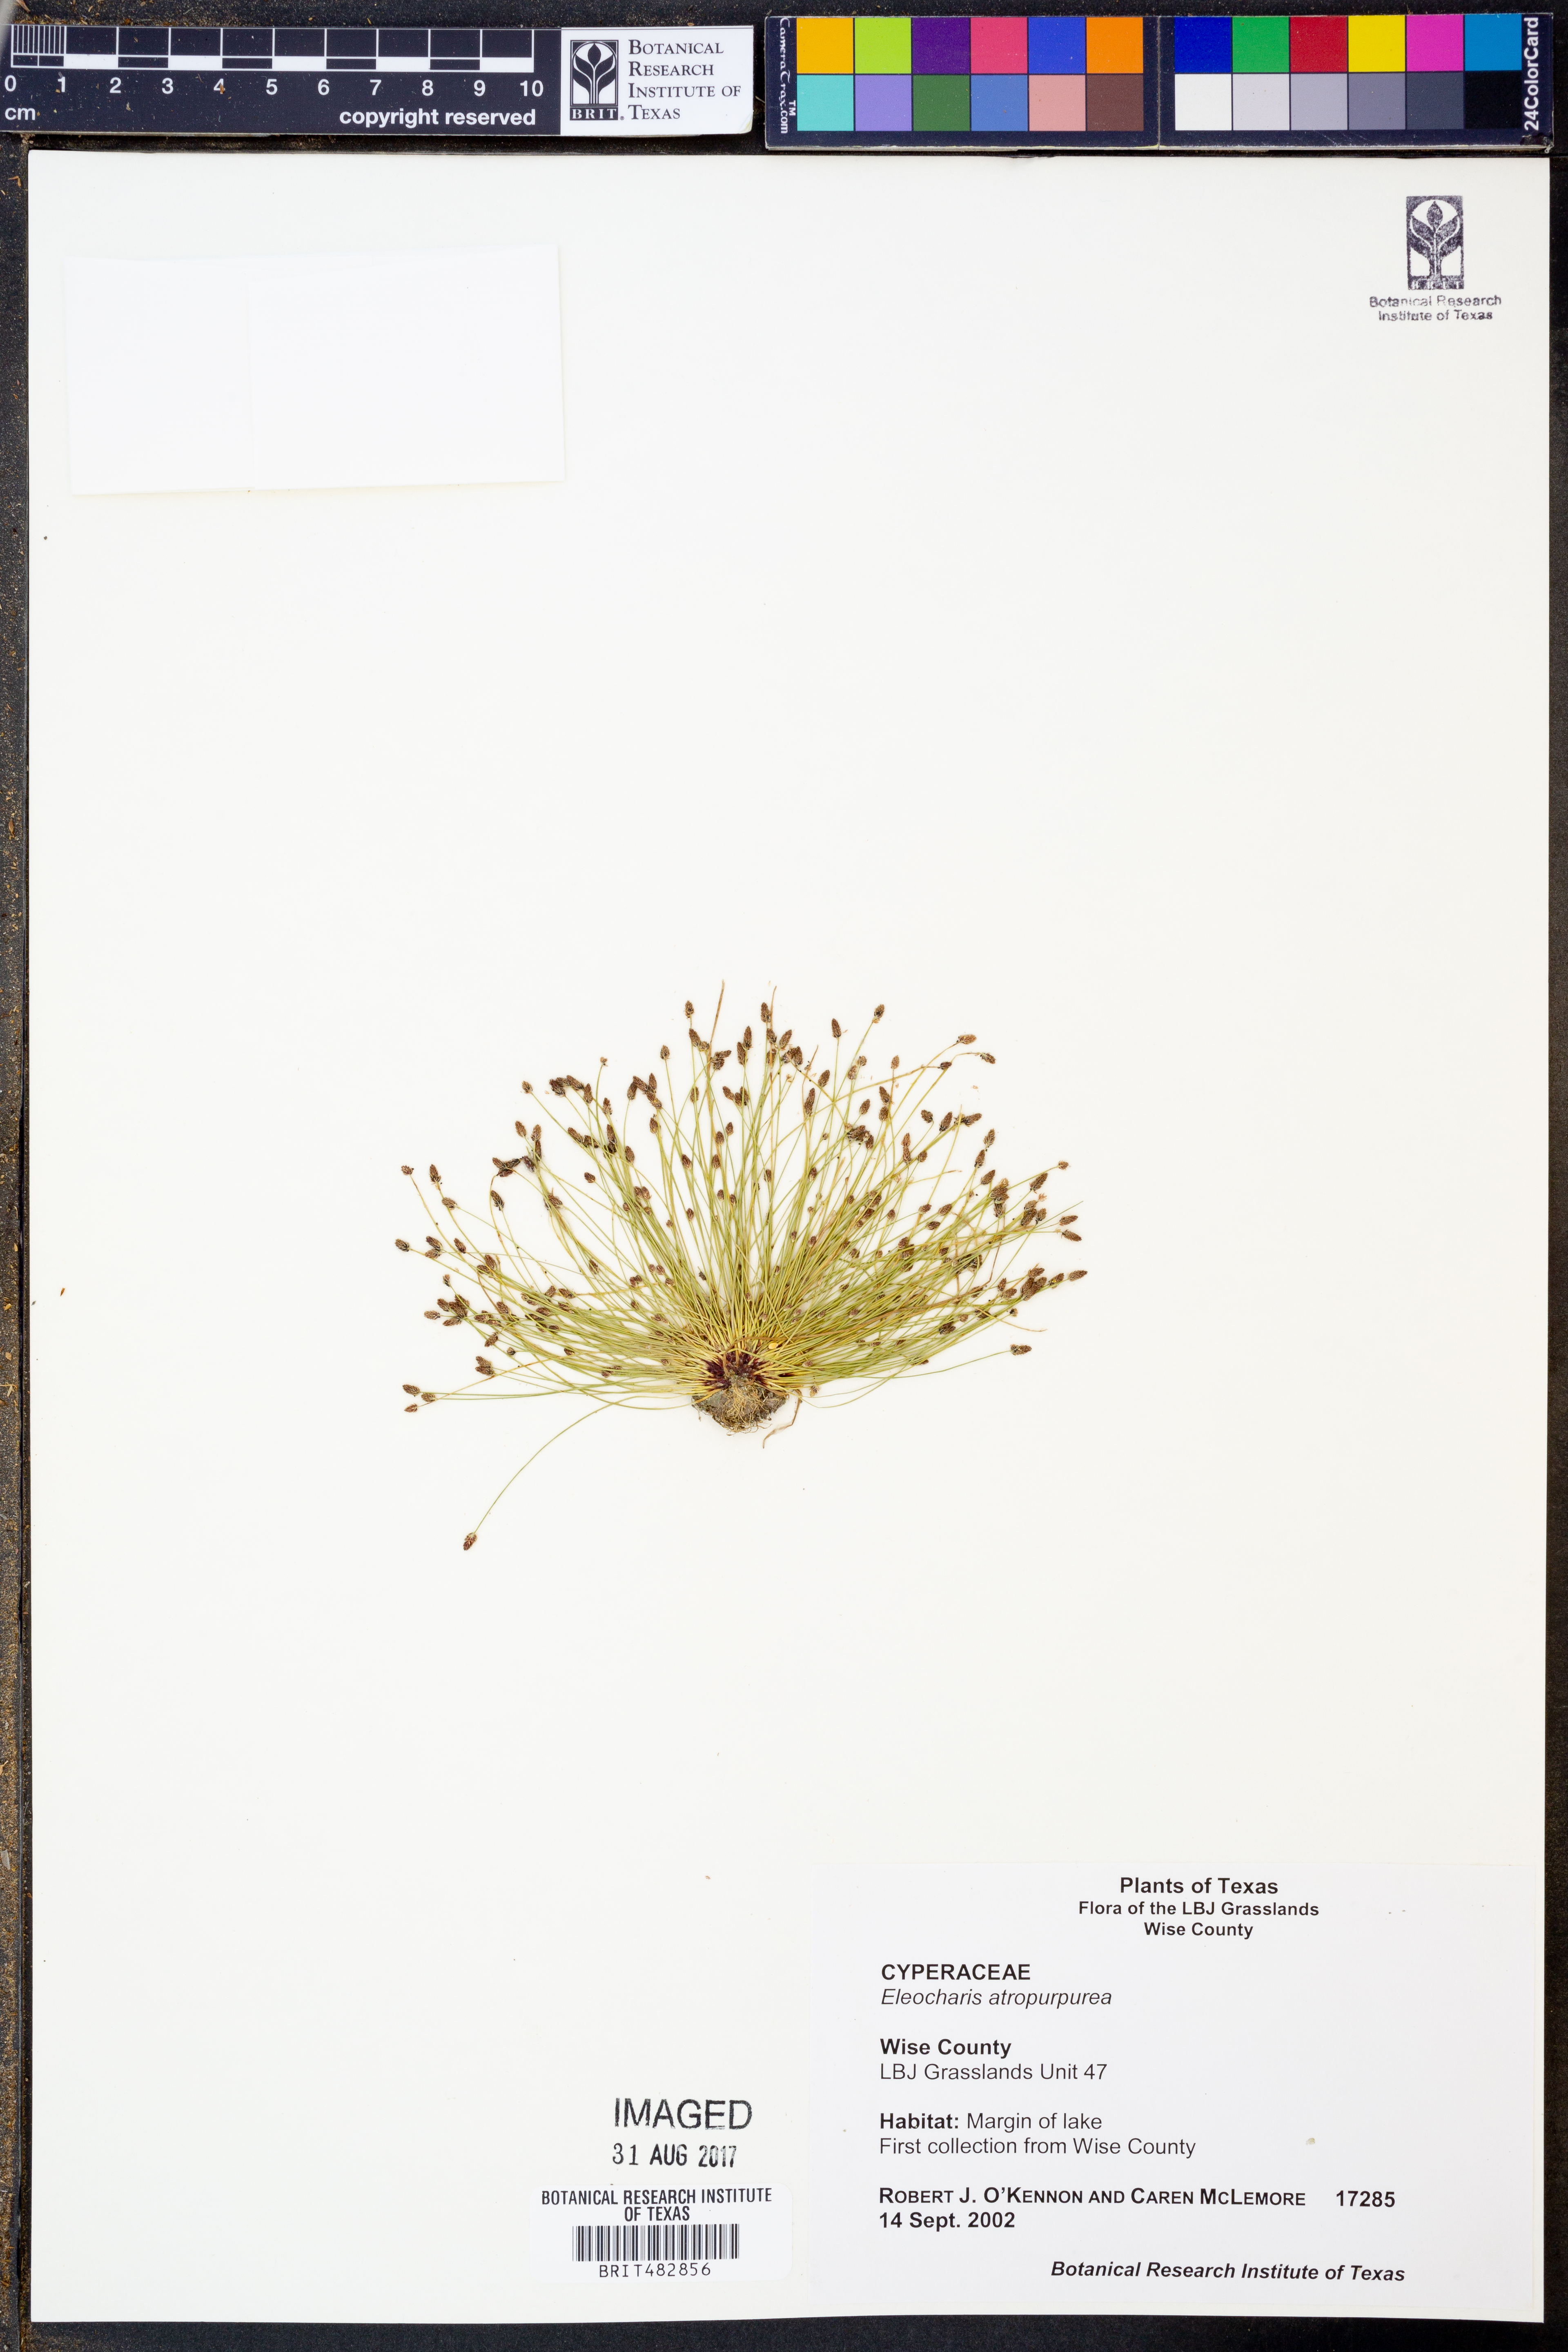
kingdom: Plantae
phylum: Tracheophyta
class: Liliopsida
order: Poales
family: Cyperaceae
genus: Eleocharis
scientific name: Eleocharis atropurpurea
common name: Purple spikerush
